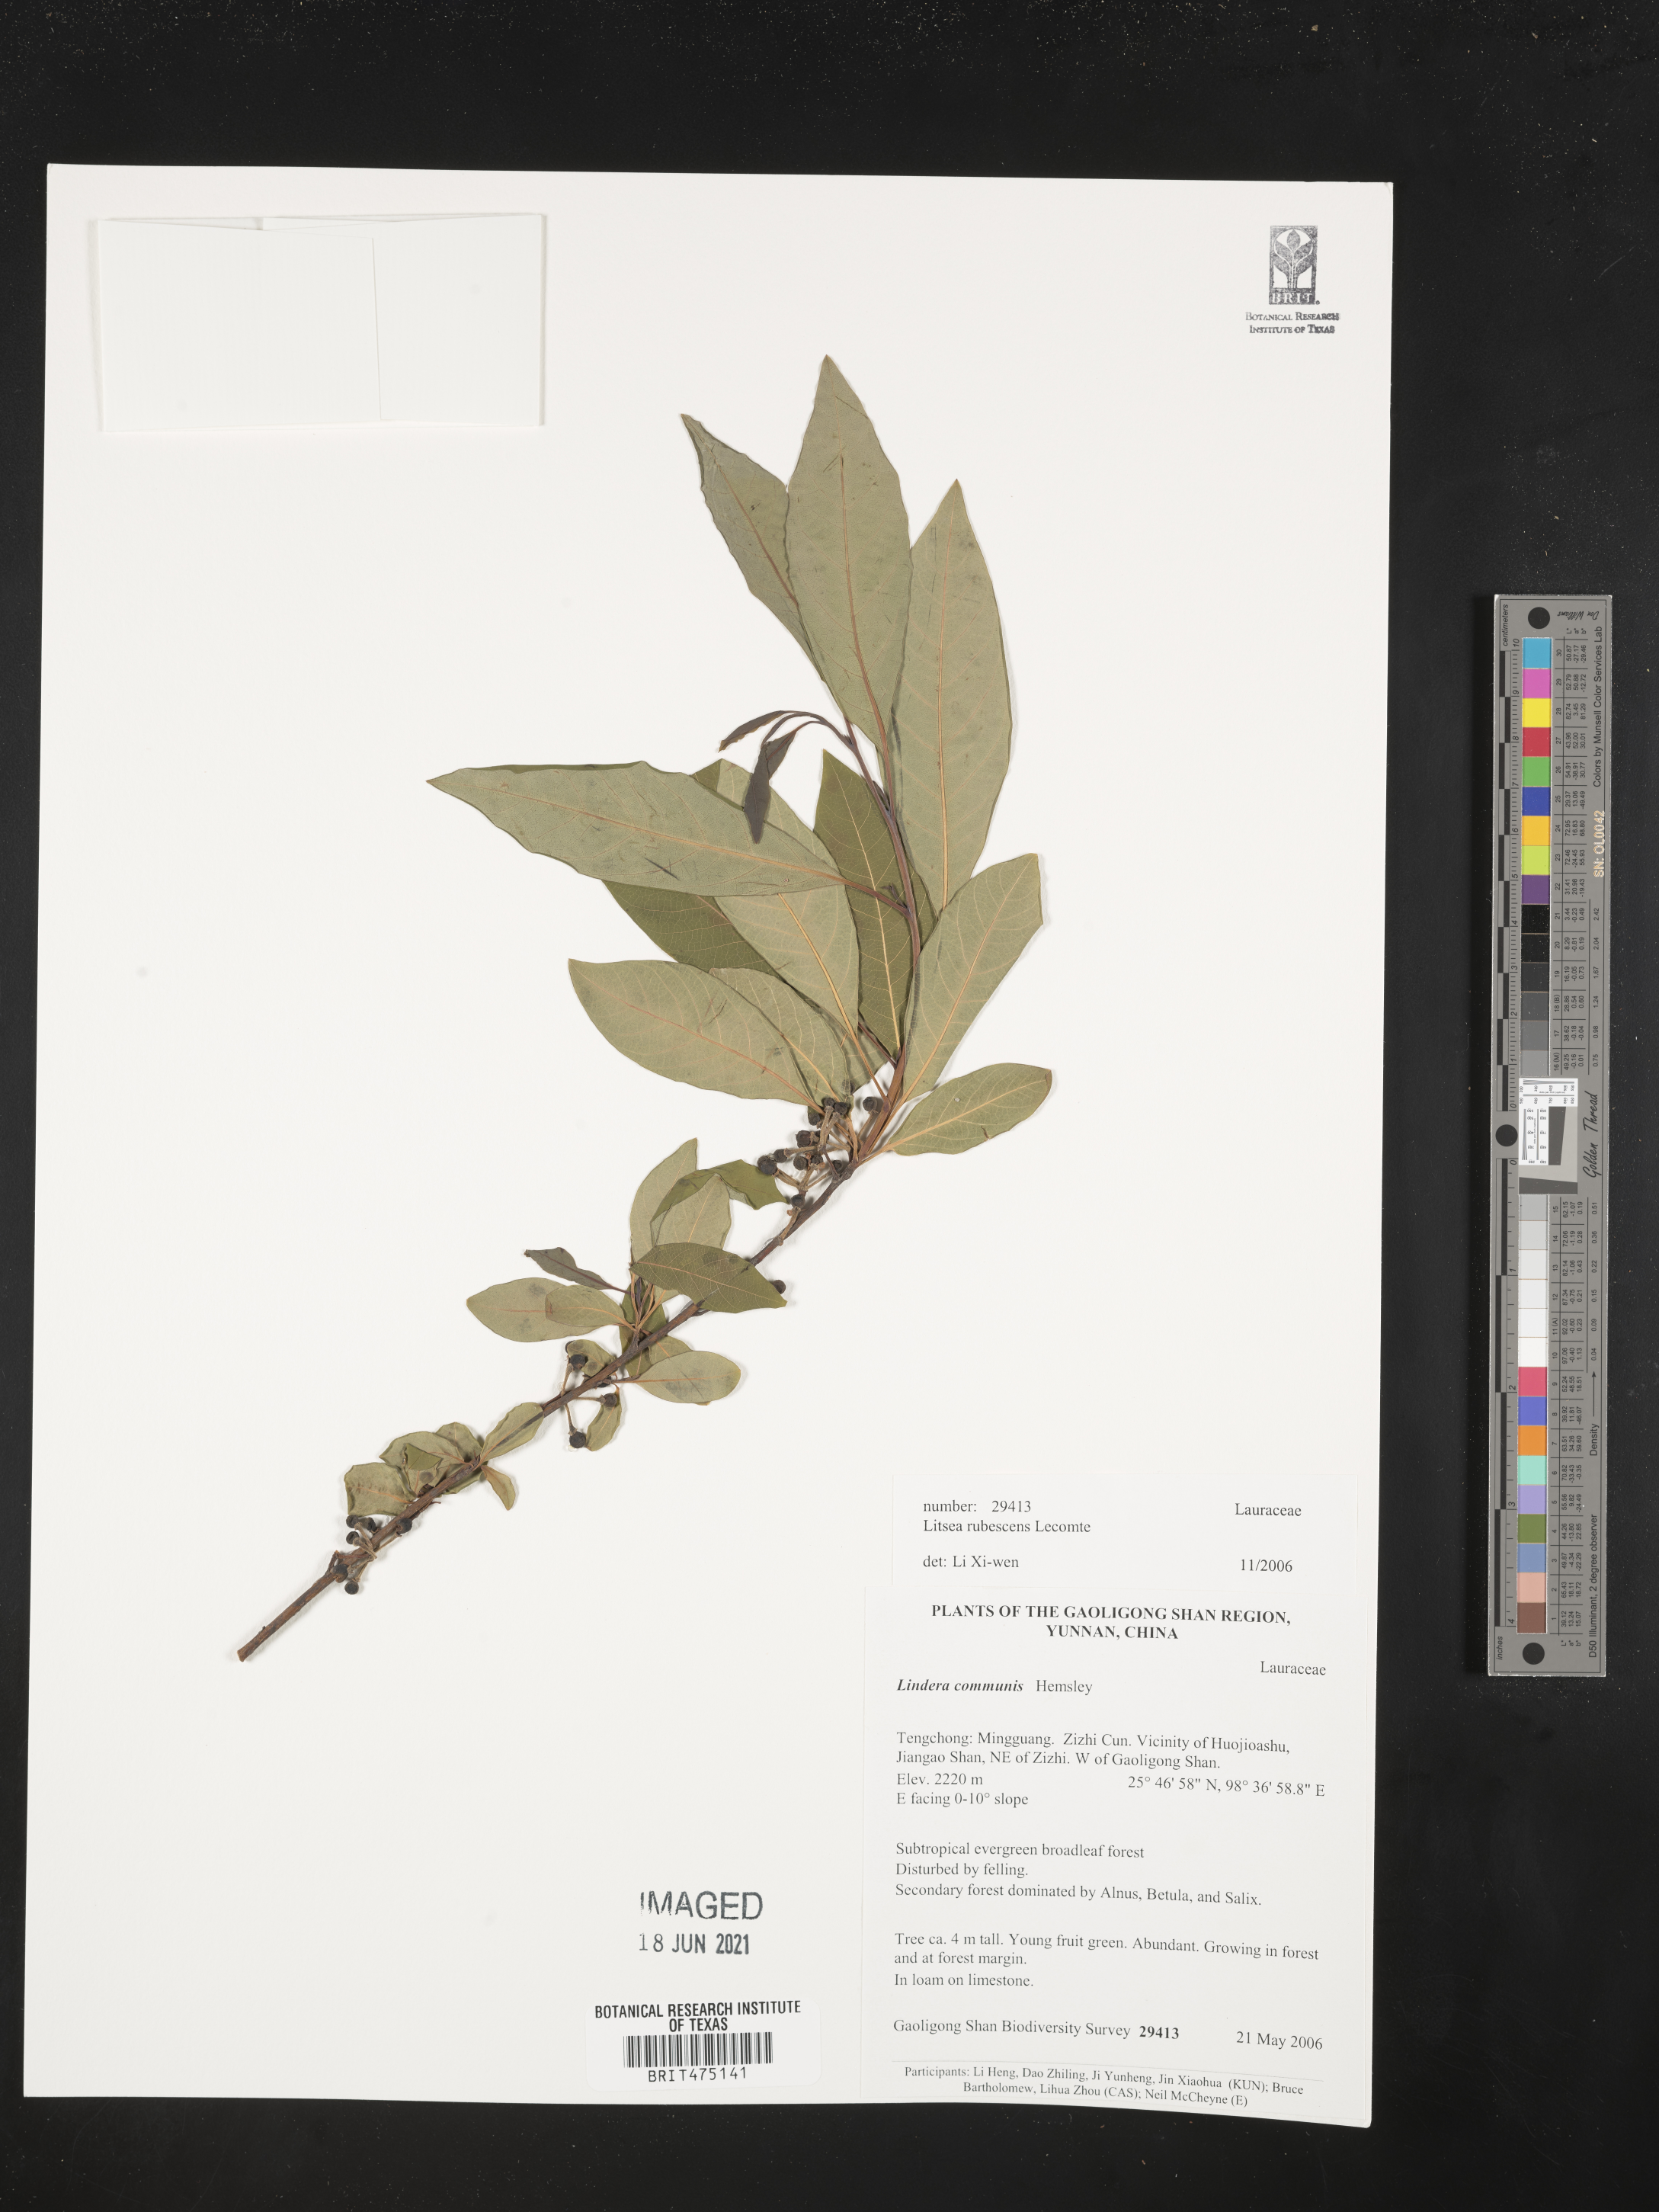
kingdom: Plantae
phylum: Tracheophyta
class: Magnoliopsida
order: Laurales
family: Lauraceae
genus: Litsea
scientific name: Litsea rubescens
